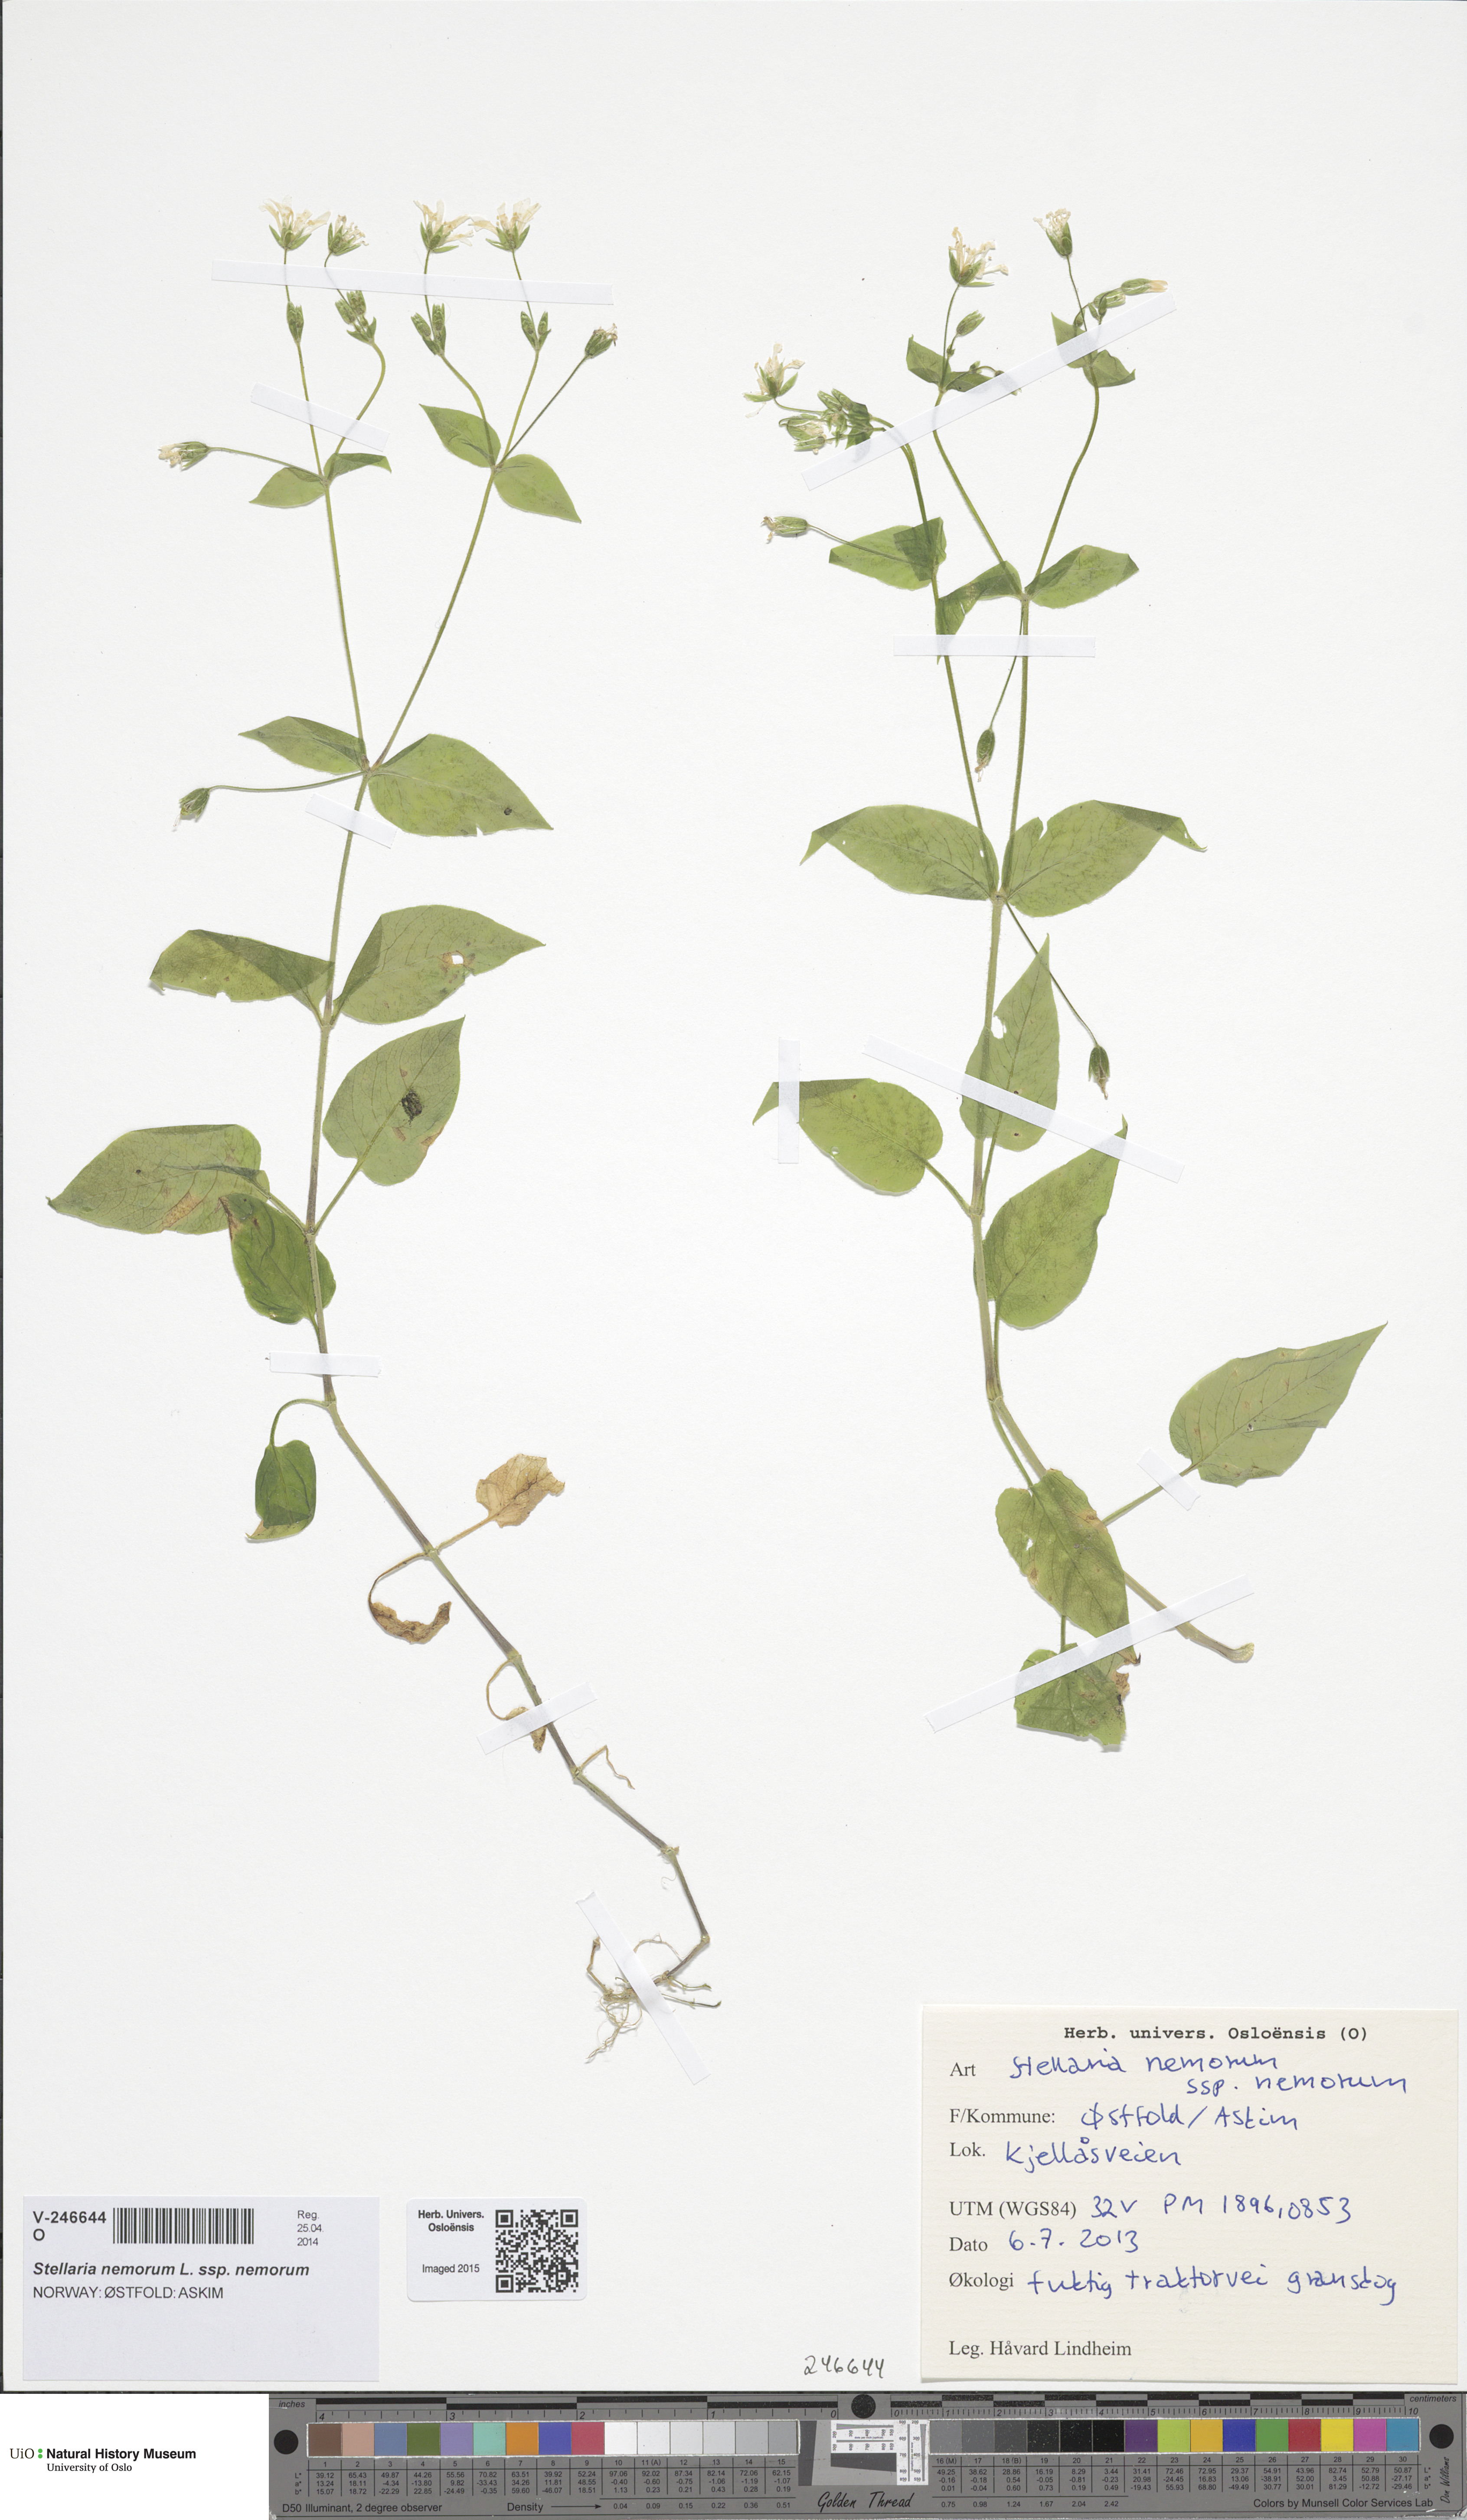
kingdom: Plantae
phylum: Tracheophyta
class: Magnoliopsida
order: Caryophyllales
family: Caryophyllaceae
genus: Stellaria
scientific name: Stellaria nemorum
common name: Wood stitchwort
